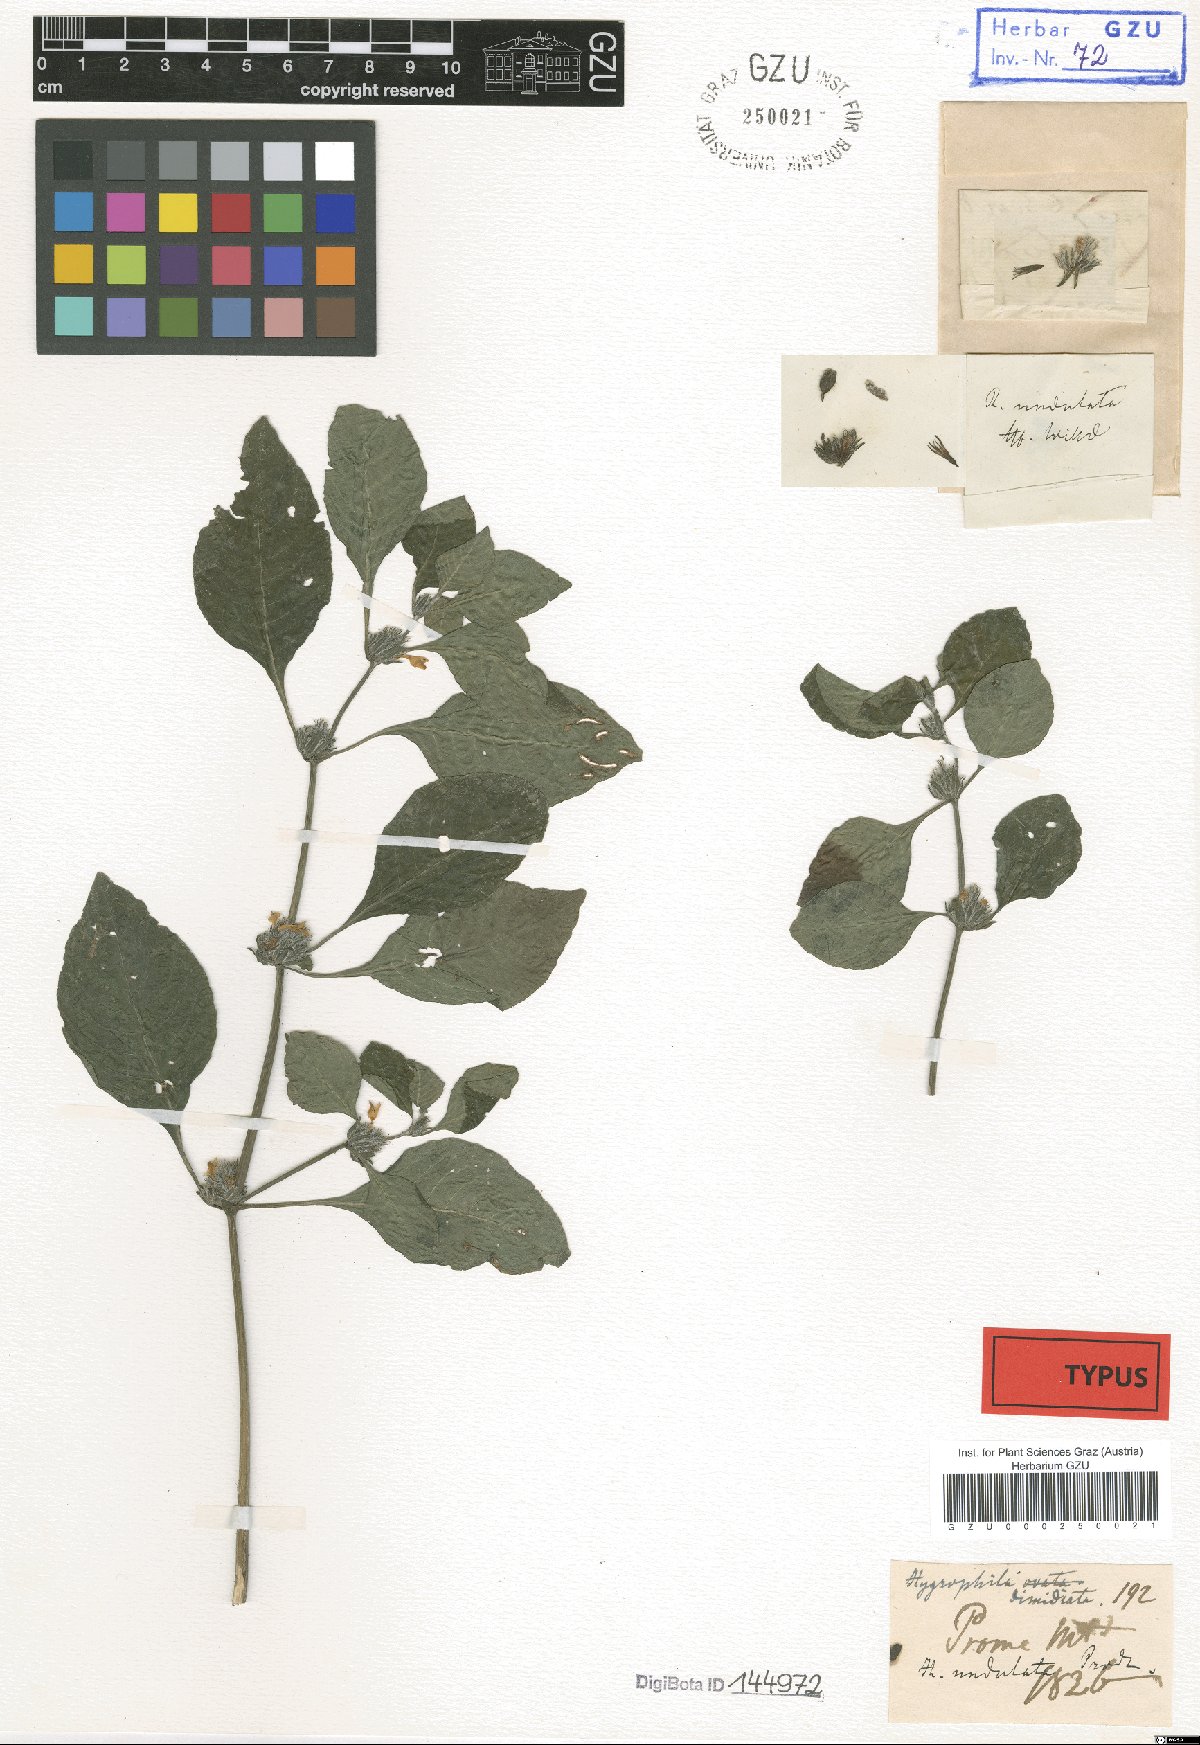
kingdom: Plantae
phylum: Tracheophyta
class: Magnoliopsida
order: Lamiales
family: Acanthaceae
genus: Hygrophila
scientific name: Hygrophila ringens
